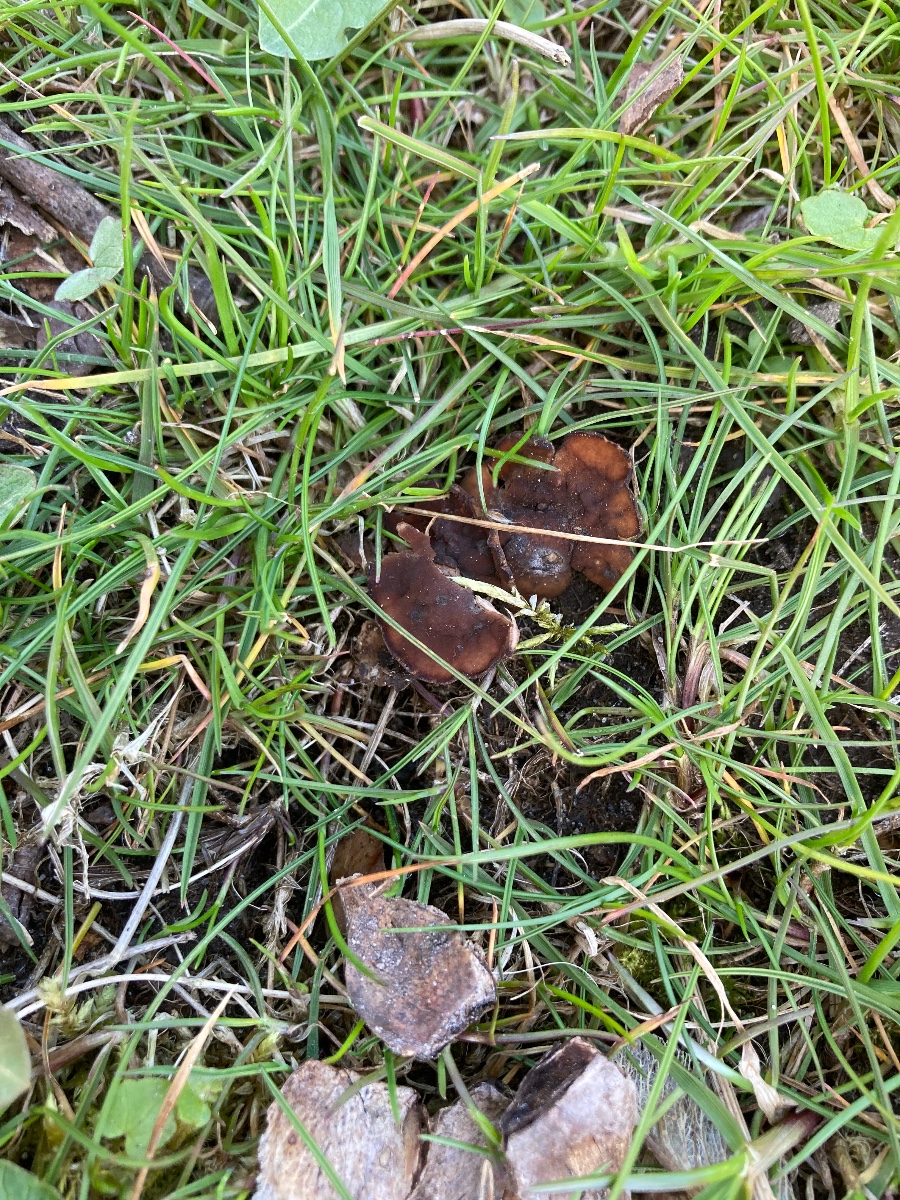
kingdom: Fungi
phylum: Ascomycota
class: Leotiomycetes
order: Helotiales
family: Sclerotiniaceae
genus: Dumontinia
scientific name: Dumontinia tuberosa
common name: anemone-knoldskive
